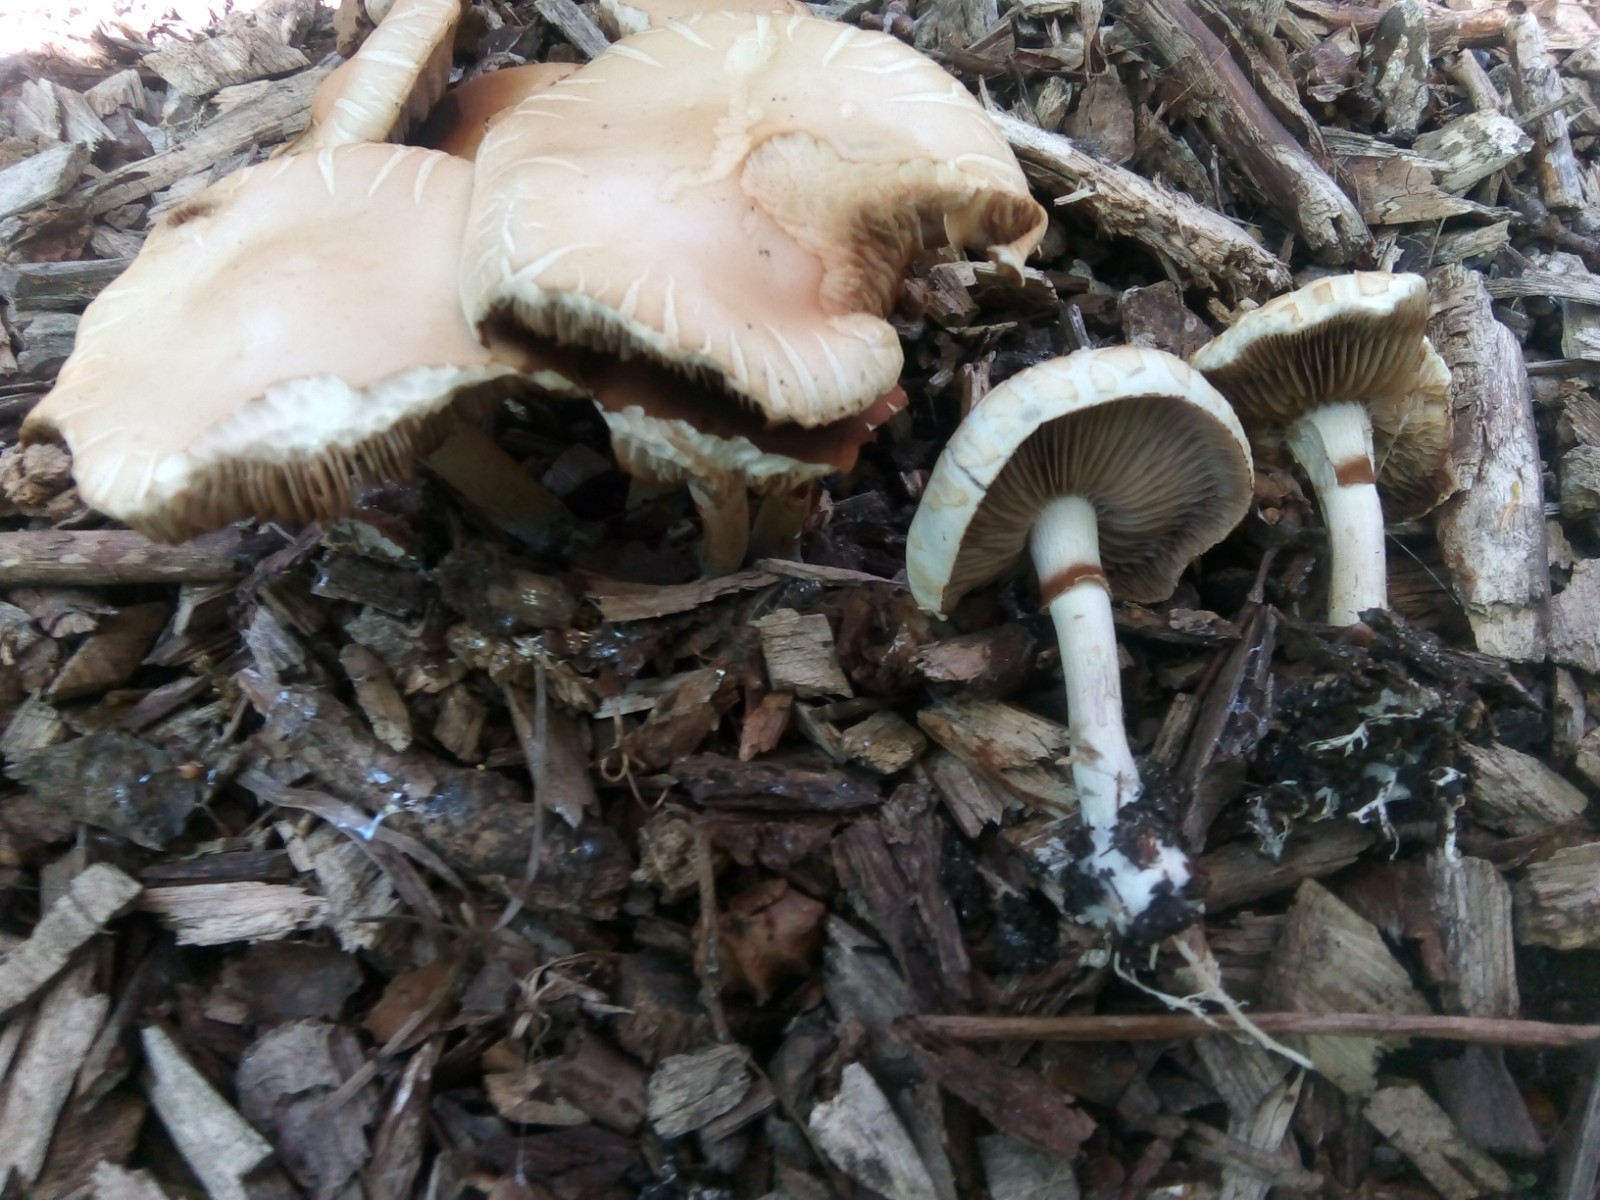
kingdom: Fungi
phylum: Basidiomycota
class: Agaricomycetes
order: Agaricales
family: Strophariaceae
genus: Agrocybe
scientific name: Agrocybe praecox
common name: tidlig agerhat
